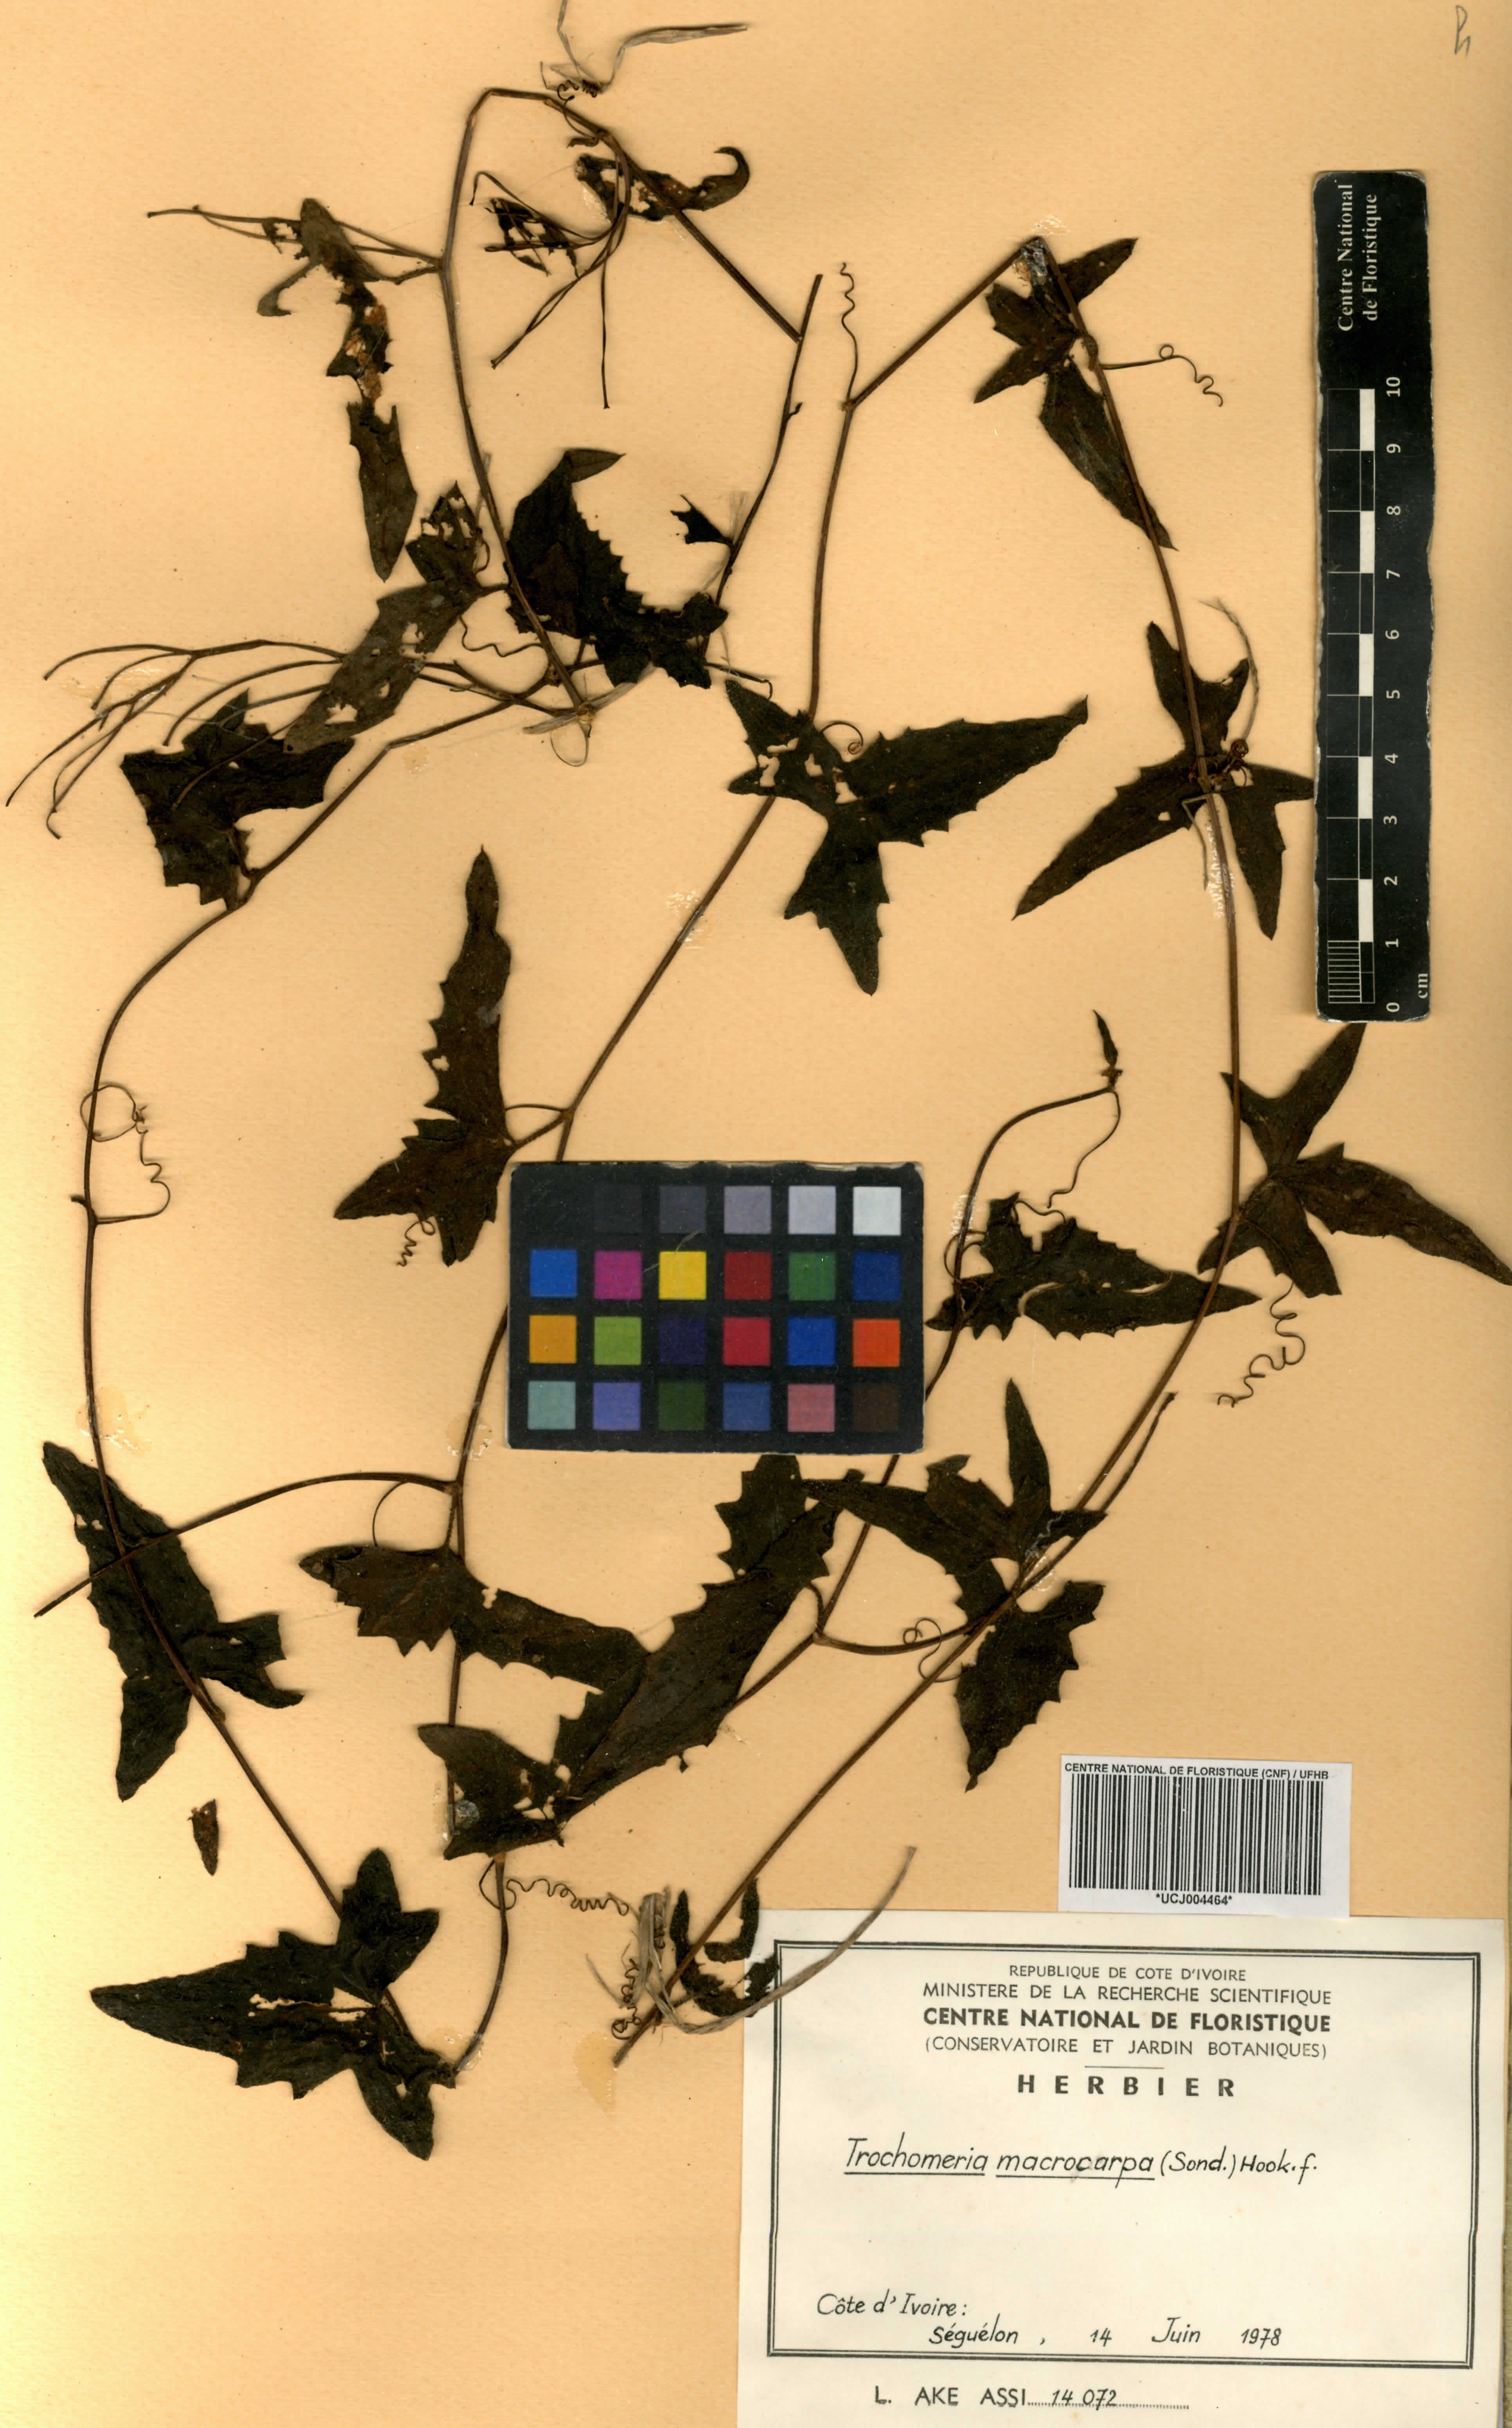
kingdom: Plantae
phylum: Tracheophyta
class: Magnoliopsida
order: Cucurbitales
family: Cucurbitaceae
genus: Trochomeria
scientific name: Trochomeria macrocarpa
